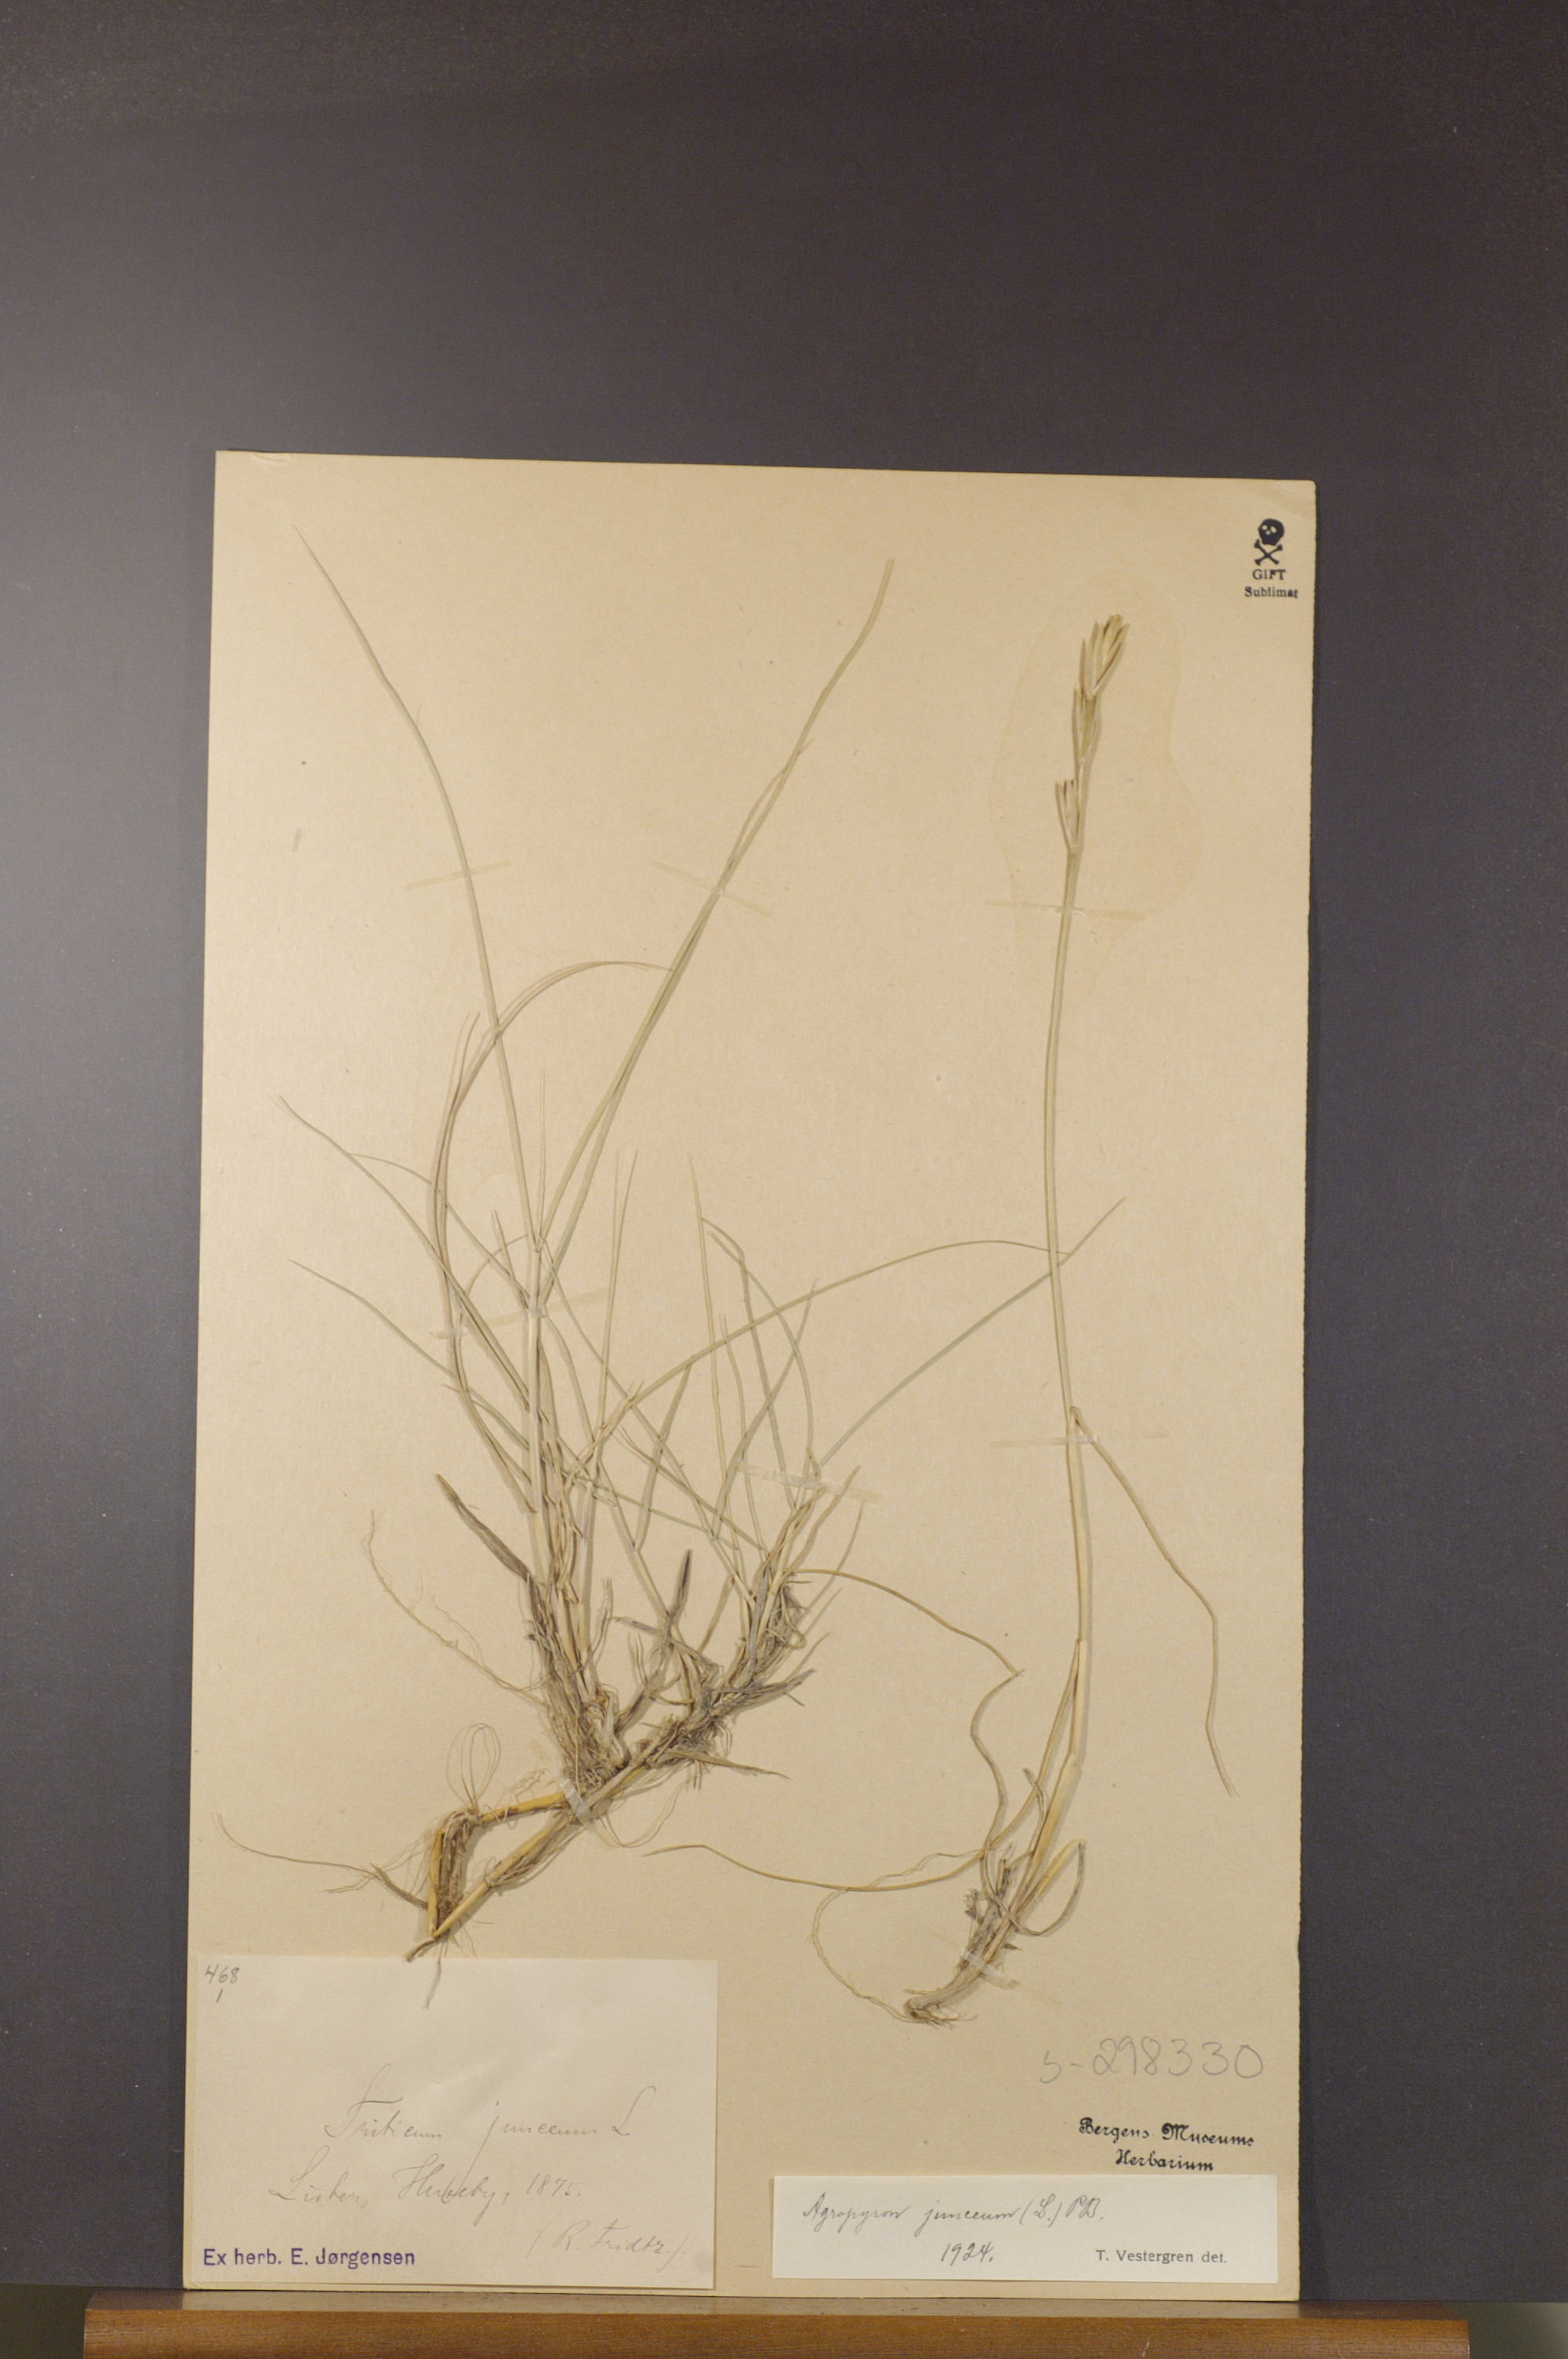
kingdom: Plantae
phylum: Tracheophyta
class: Liliopsida
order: Poales
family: Poaceae
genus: Thinopyrum
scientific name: Thinopyrum junceum
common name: Russian wheatgrass
